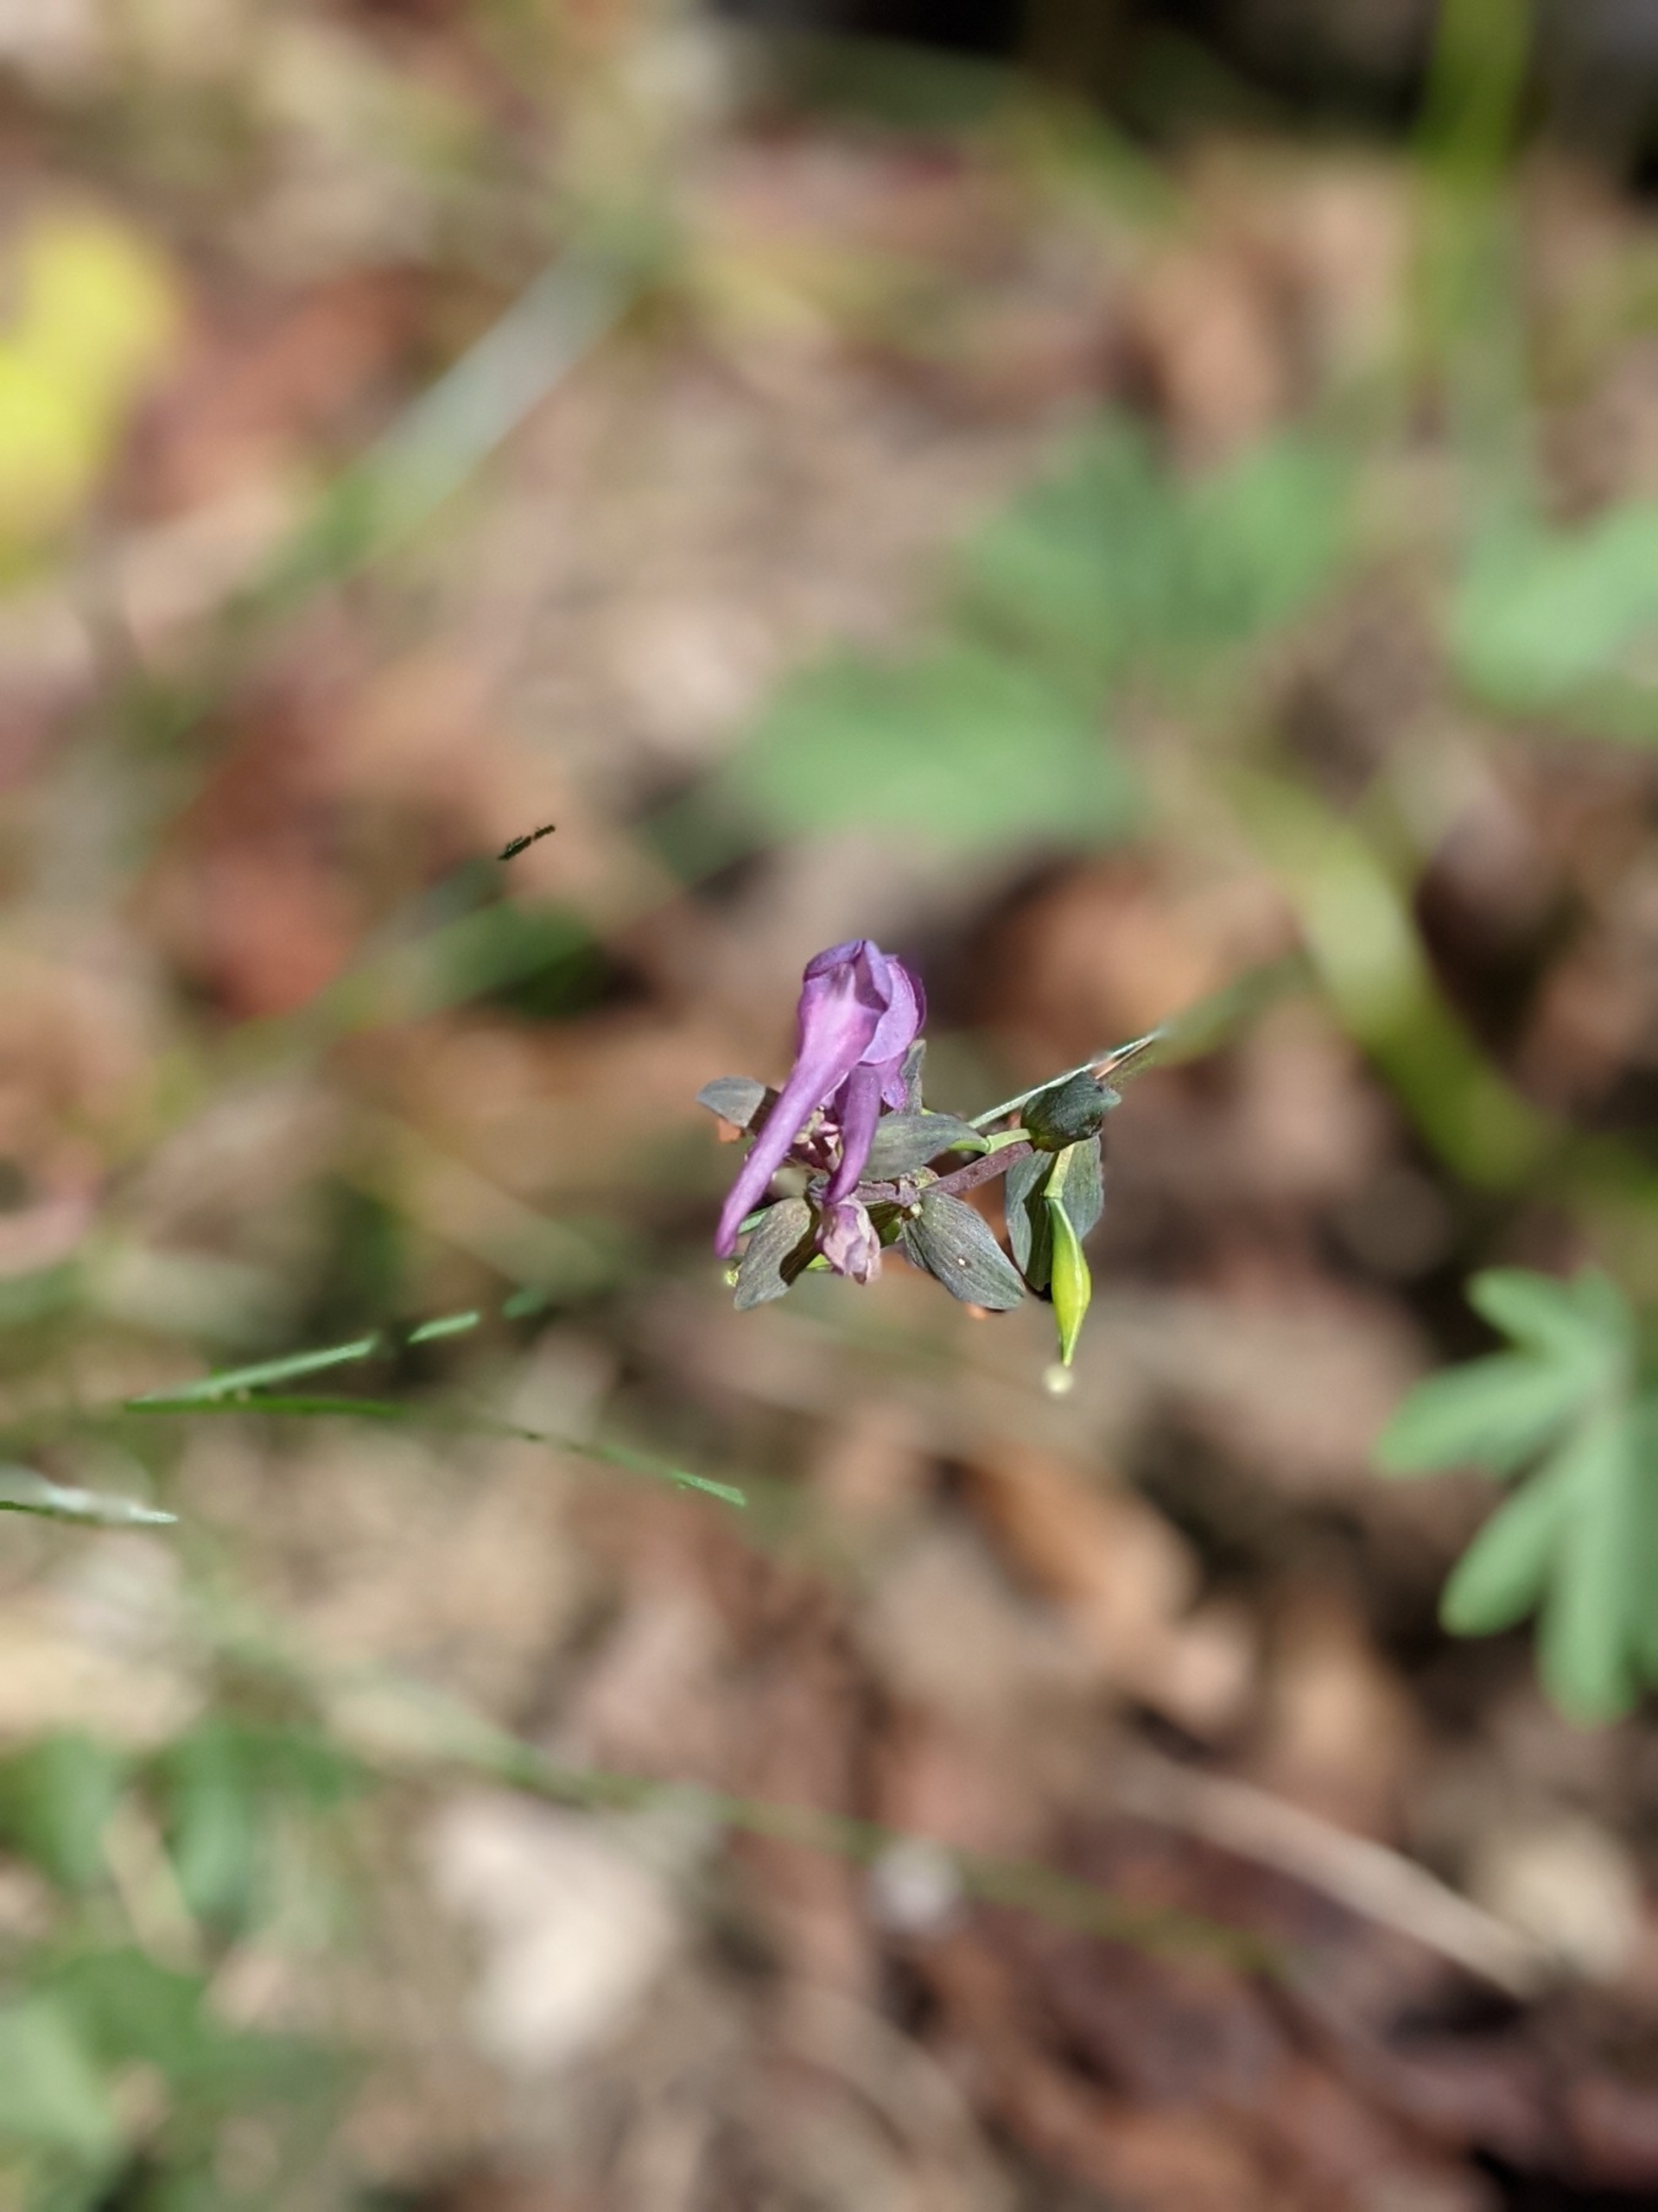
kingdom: Plantae
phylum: Tracheophyta
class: Magnoliopsida
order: Ranunculales
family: Papaveraceae
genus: Corydalis
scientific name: Corydalis cava
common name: Hulrodet lærkespore
